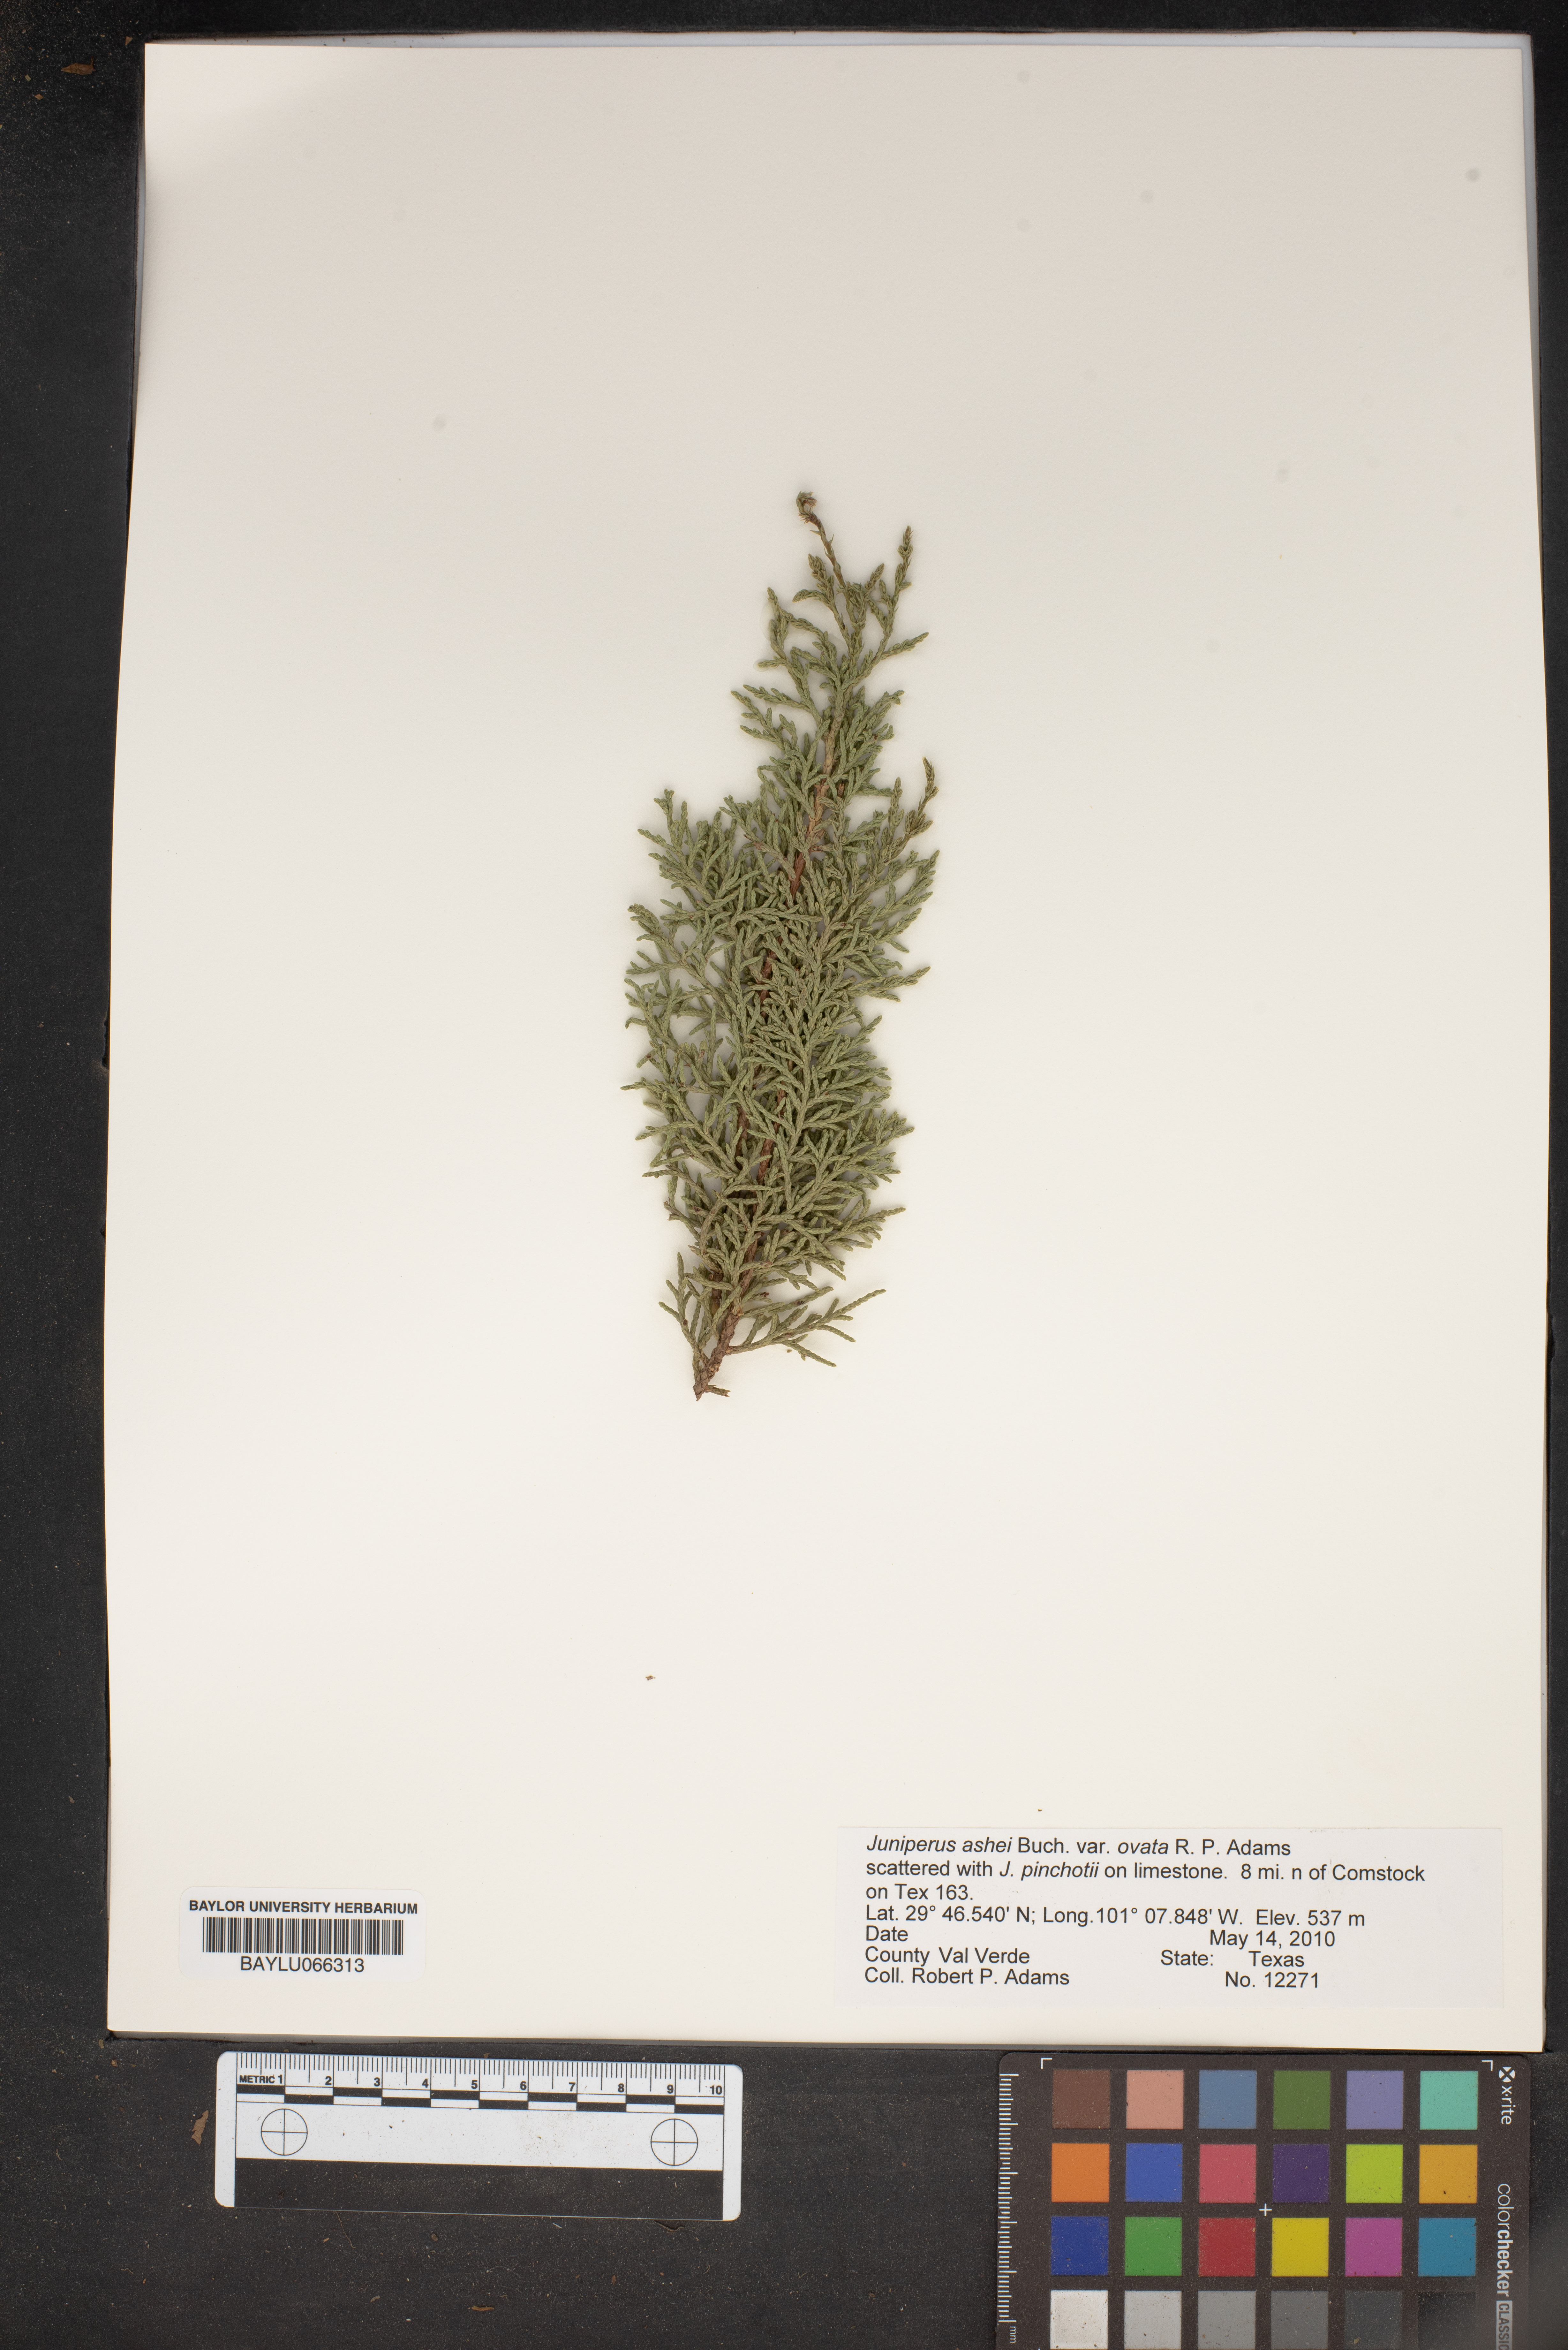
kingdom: Plantae
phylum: Tracheophyta
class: Pinopsida
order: Pinales
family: Cupressaceae
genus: Juniperus
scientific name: Juniperus ashei
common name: Mexican juniper
